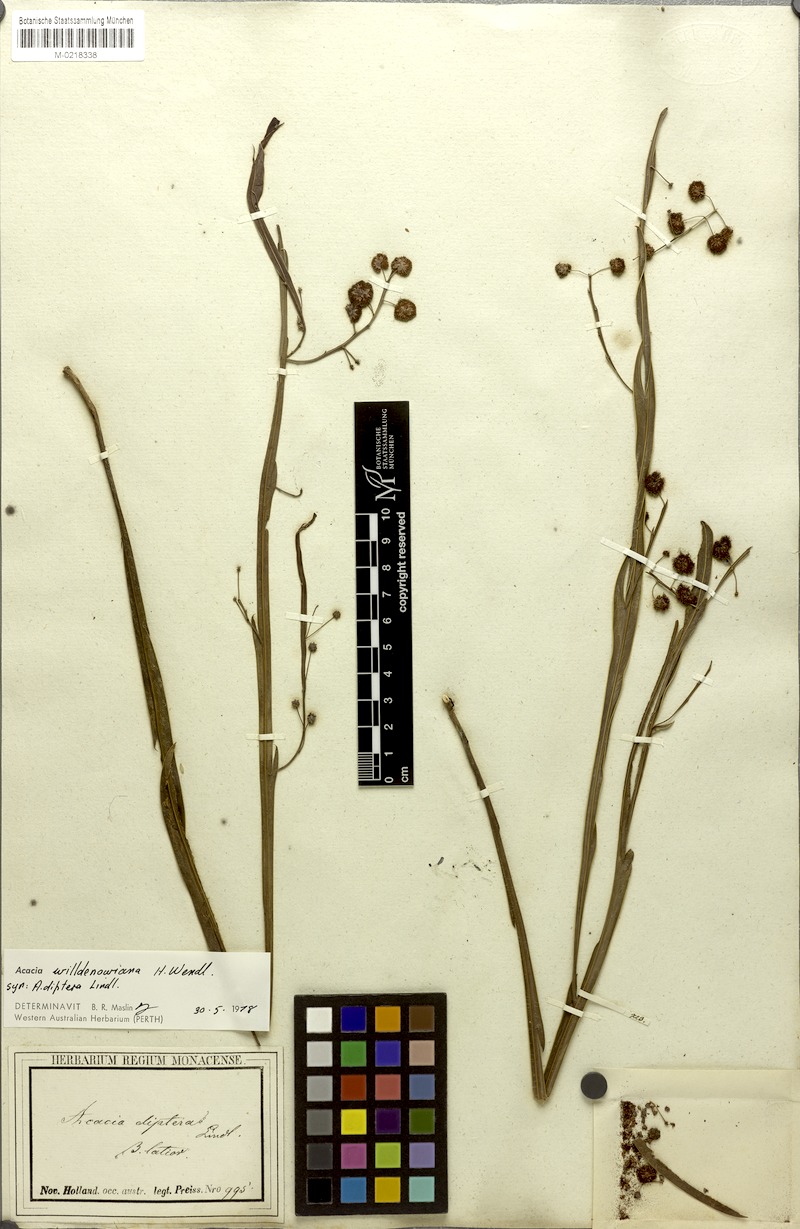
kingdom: Plantae
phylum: Tracheophyta
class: Magnoliopsida
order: Fabales
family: Fabaceae
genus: Acacia
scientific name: Acacia applanata
